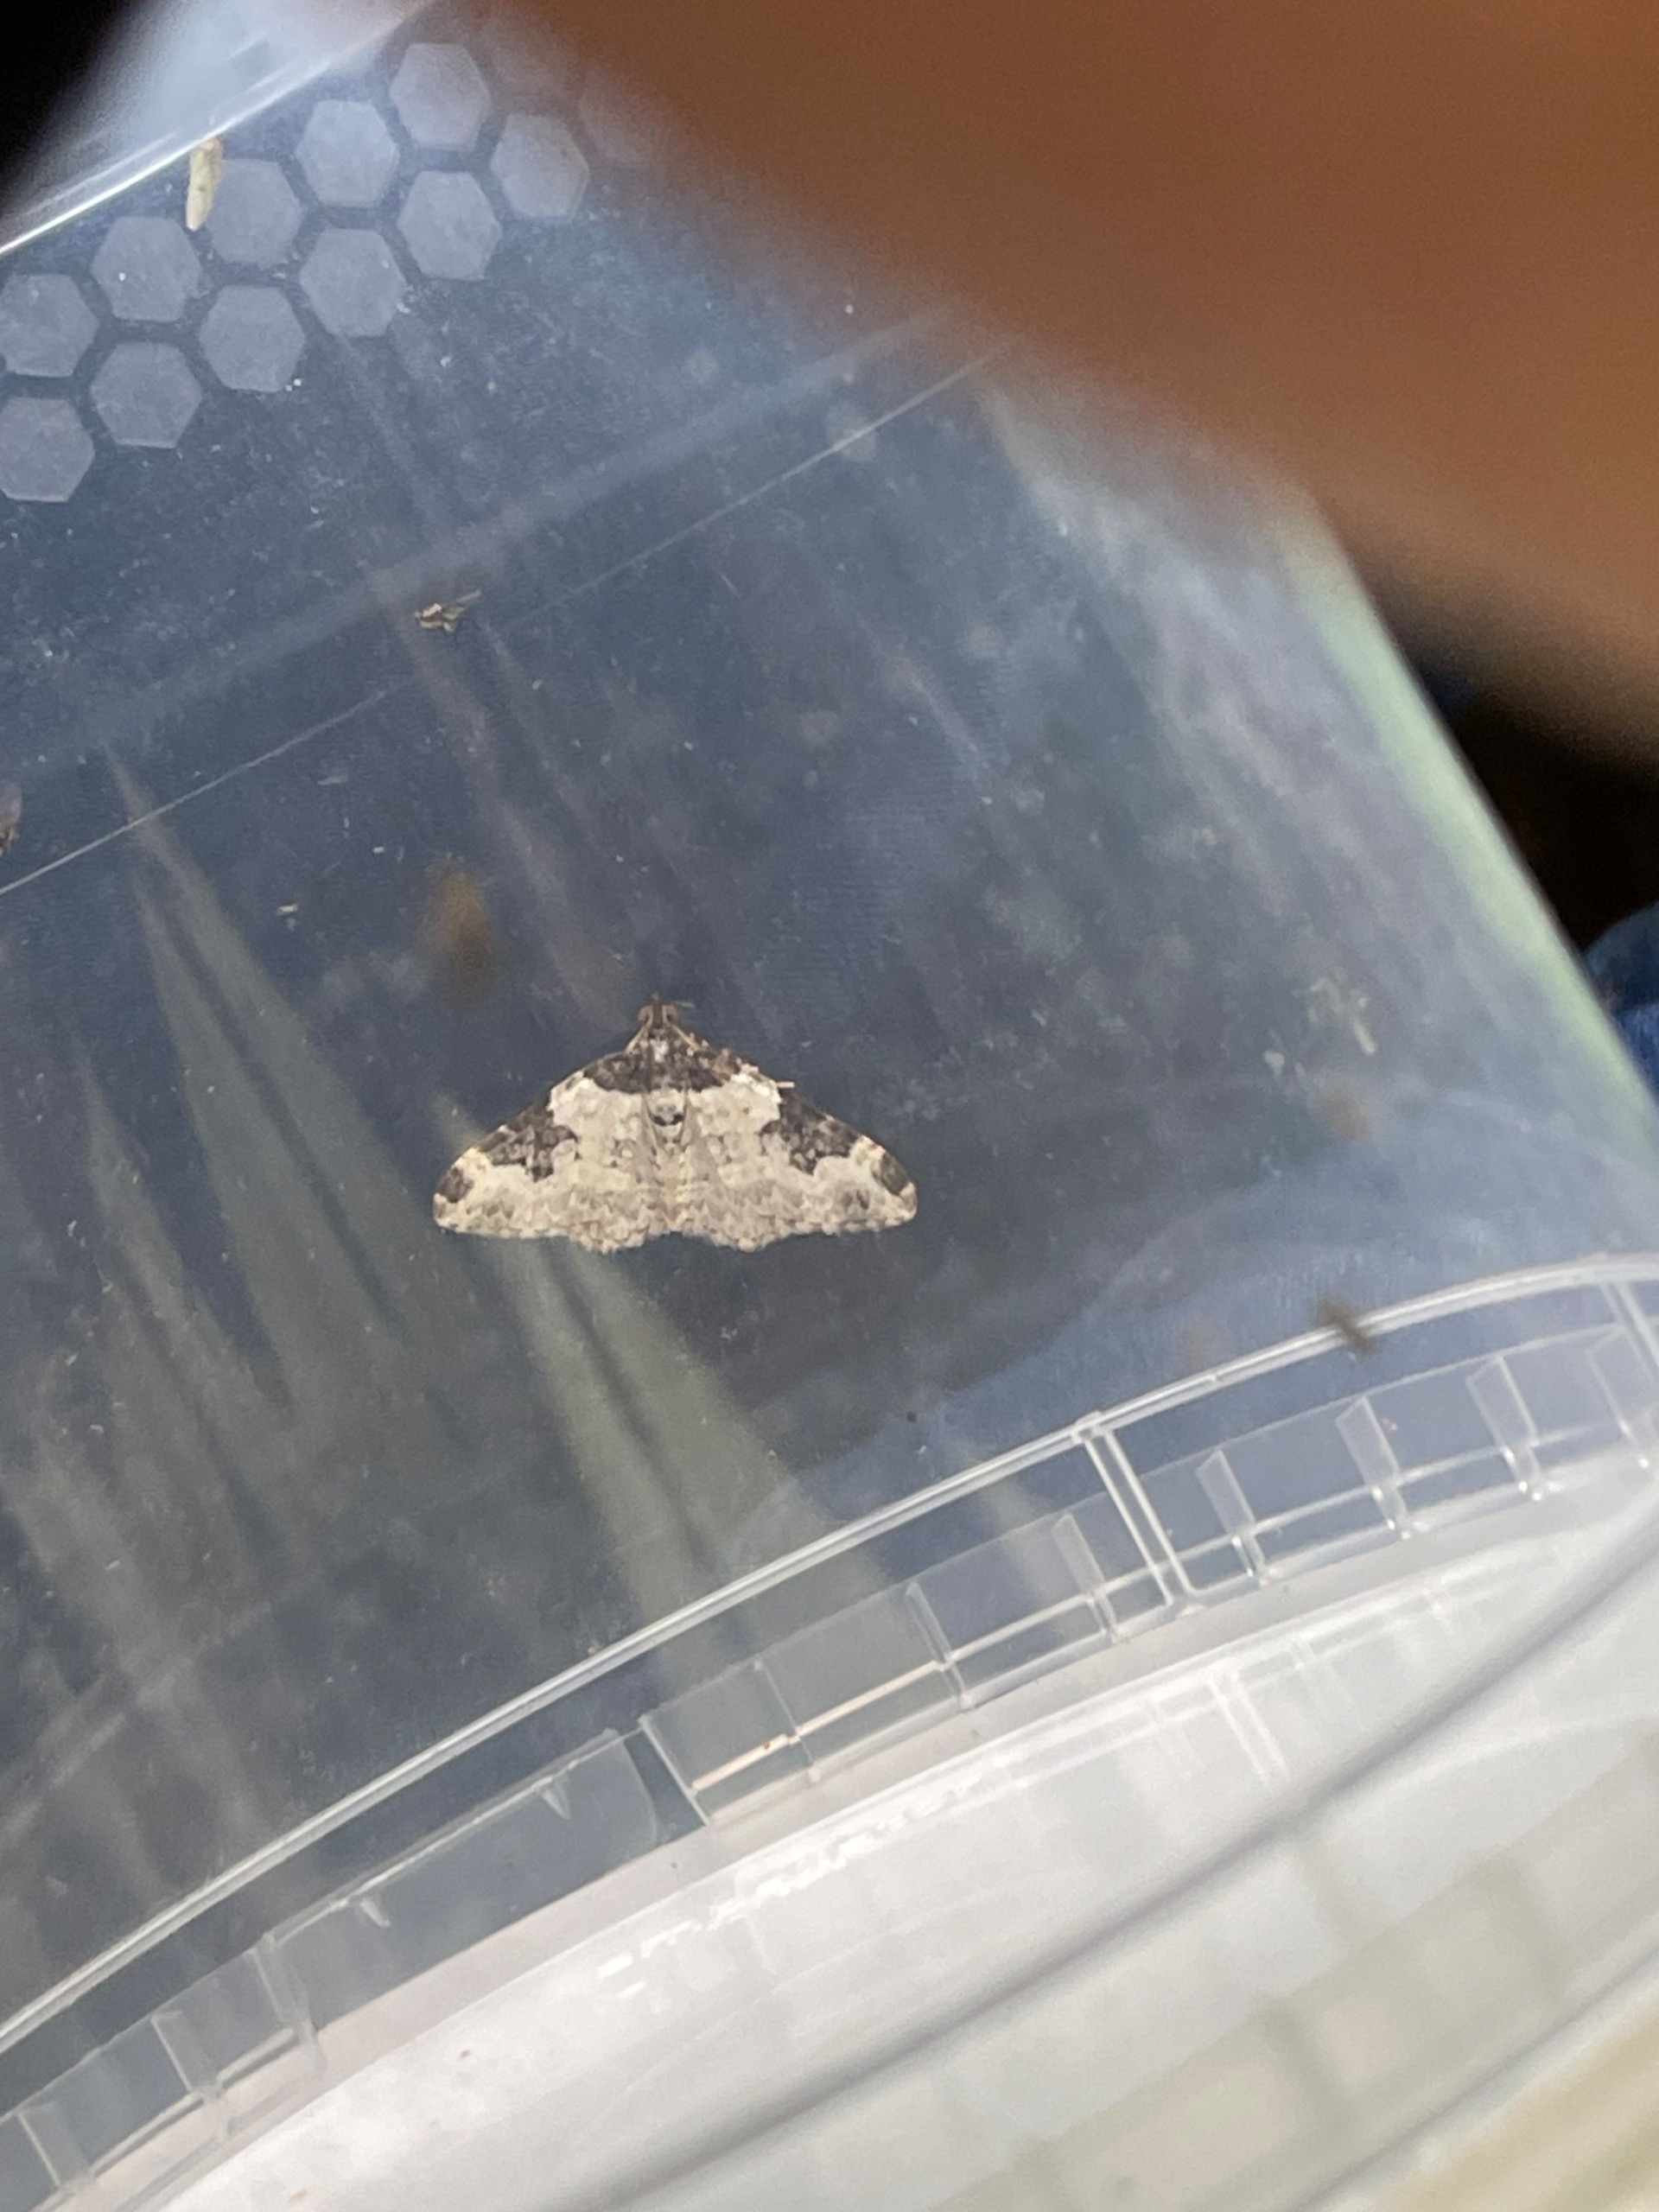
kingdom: Animalia
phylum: Arthropoda
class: Insecta
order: Lepidoptera
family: Geometridae
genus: Xanthorhoe
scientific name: Xanthorhoe fluctuata
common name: Sortbæltet bladmåler
